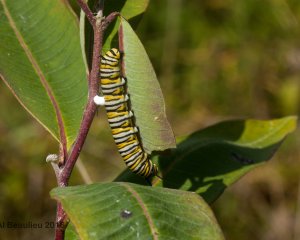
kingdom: Animalia
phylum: Arthropoda
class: Insecta
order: Lepidoptera
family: Nymphalidae
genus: Danaus
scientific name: Danaus plexippus
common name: Monarch
